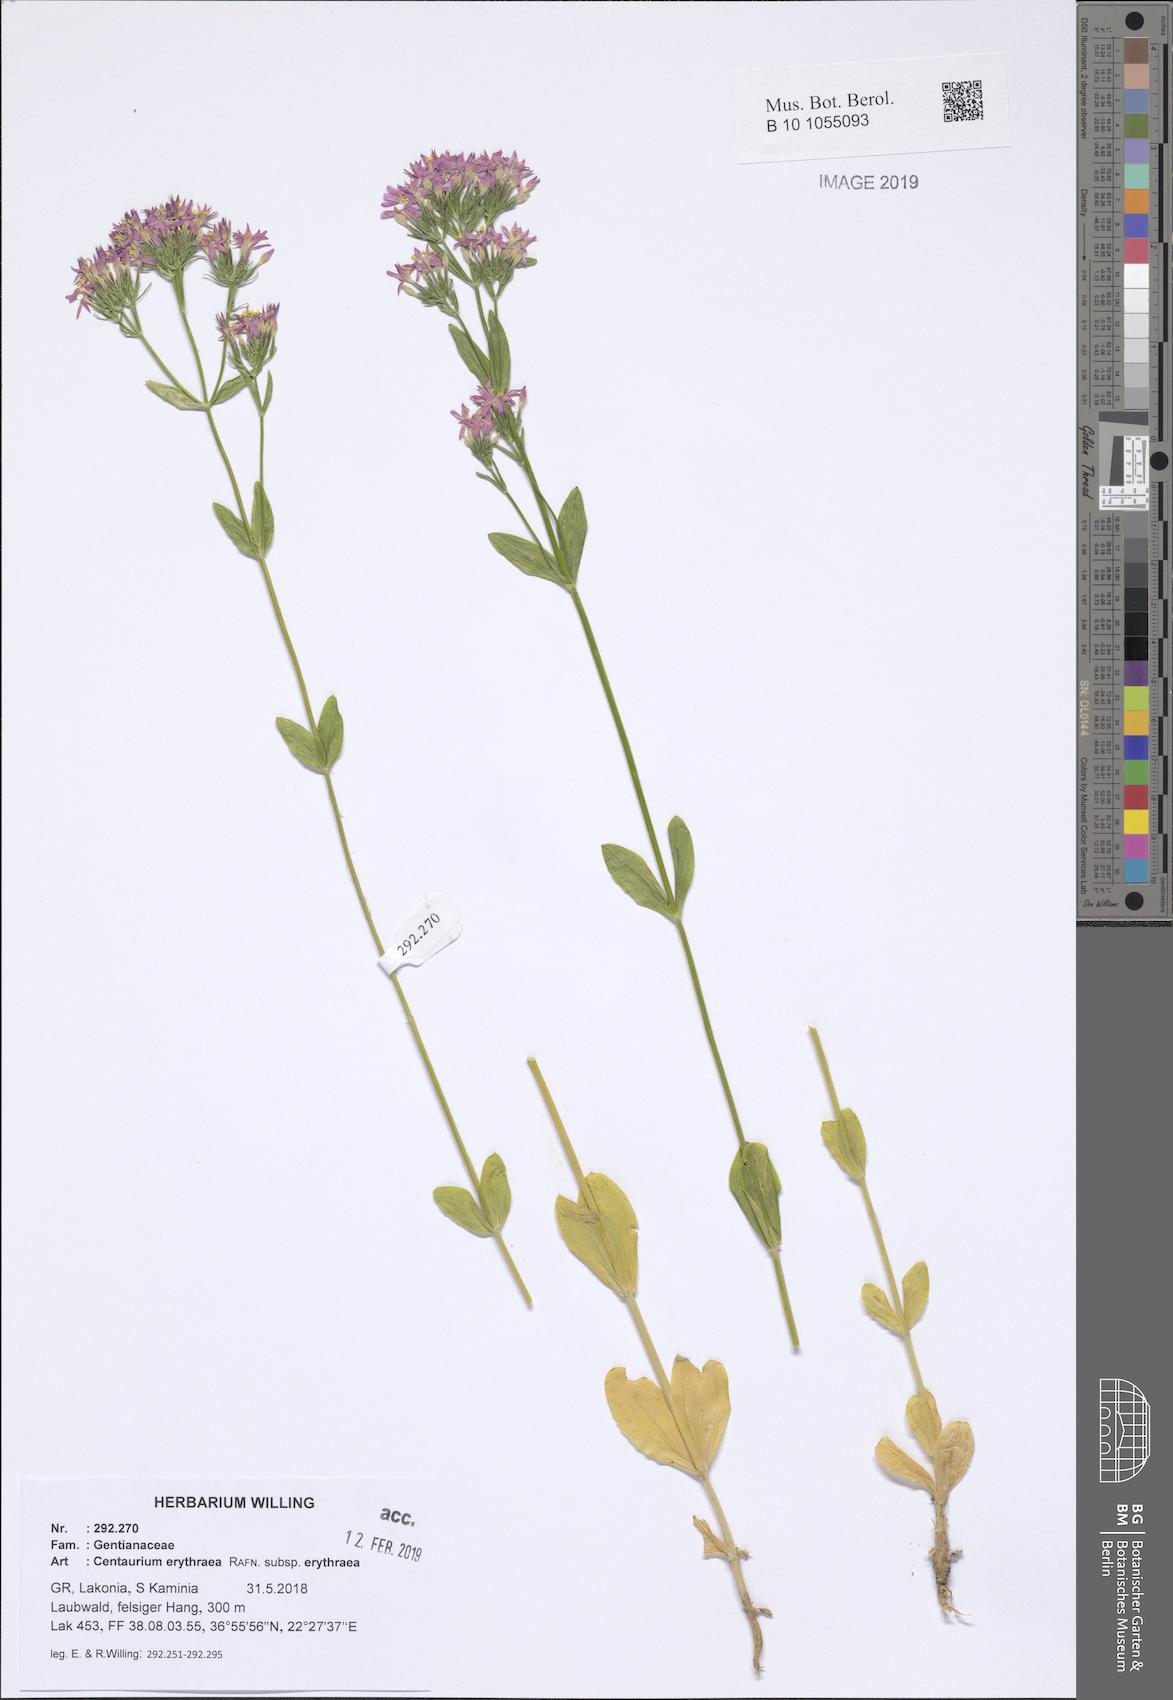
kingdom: Plantae
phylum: Tracheophyta
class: Magnoliopsida
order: Gentianales
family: Gentianaceae
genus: Centaurium
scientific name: Centaurium erythraea
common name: Common centaury
